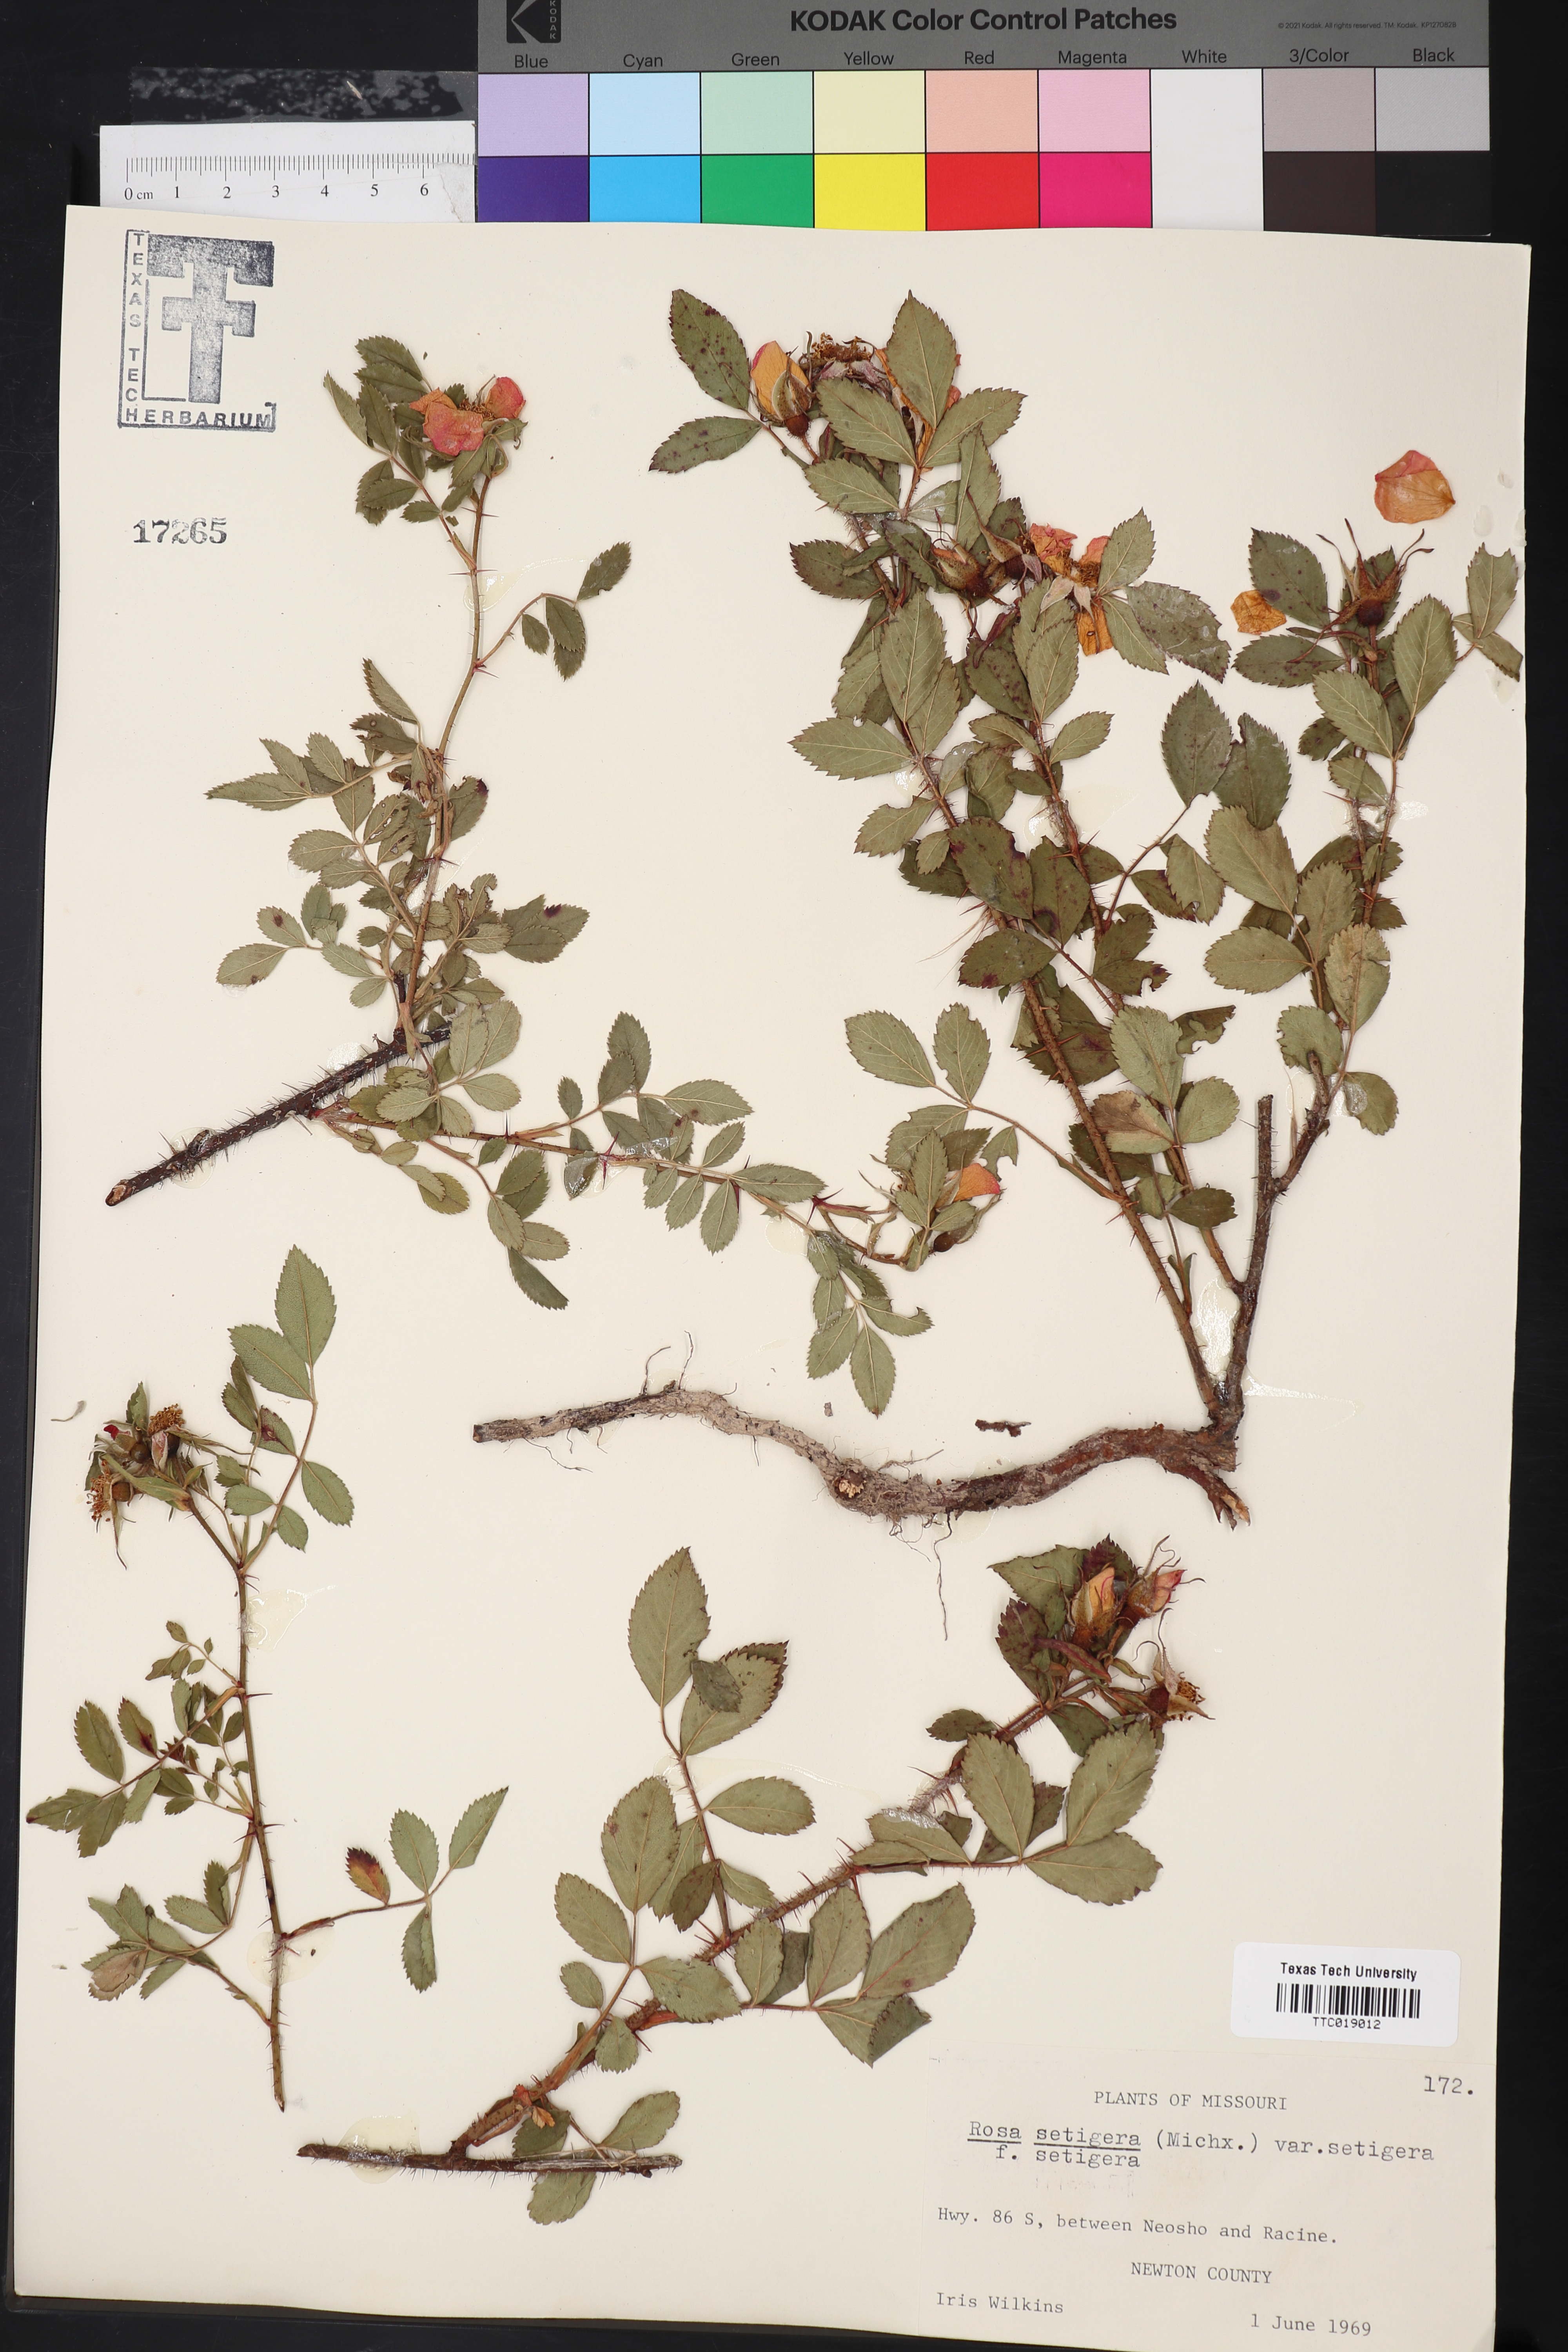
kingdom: Plantae
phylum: Tracheophyta
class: Magnoliopsida
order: Rosales
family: Rosaceae
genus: Rosa
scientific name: Rosa setigera
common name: Prairie rose
